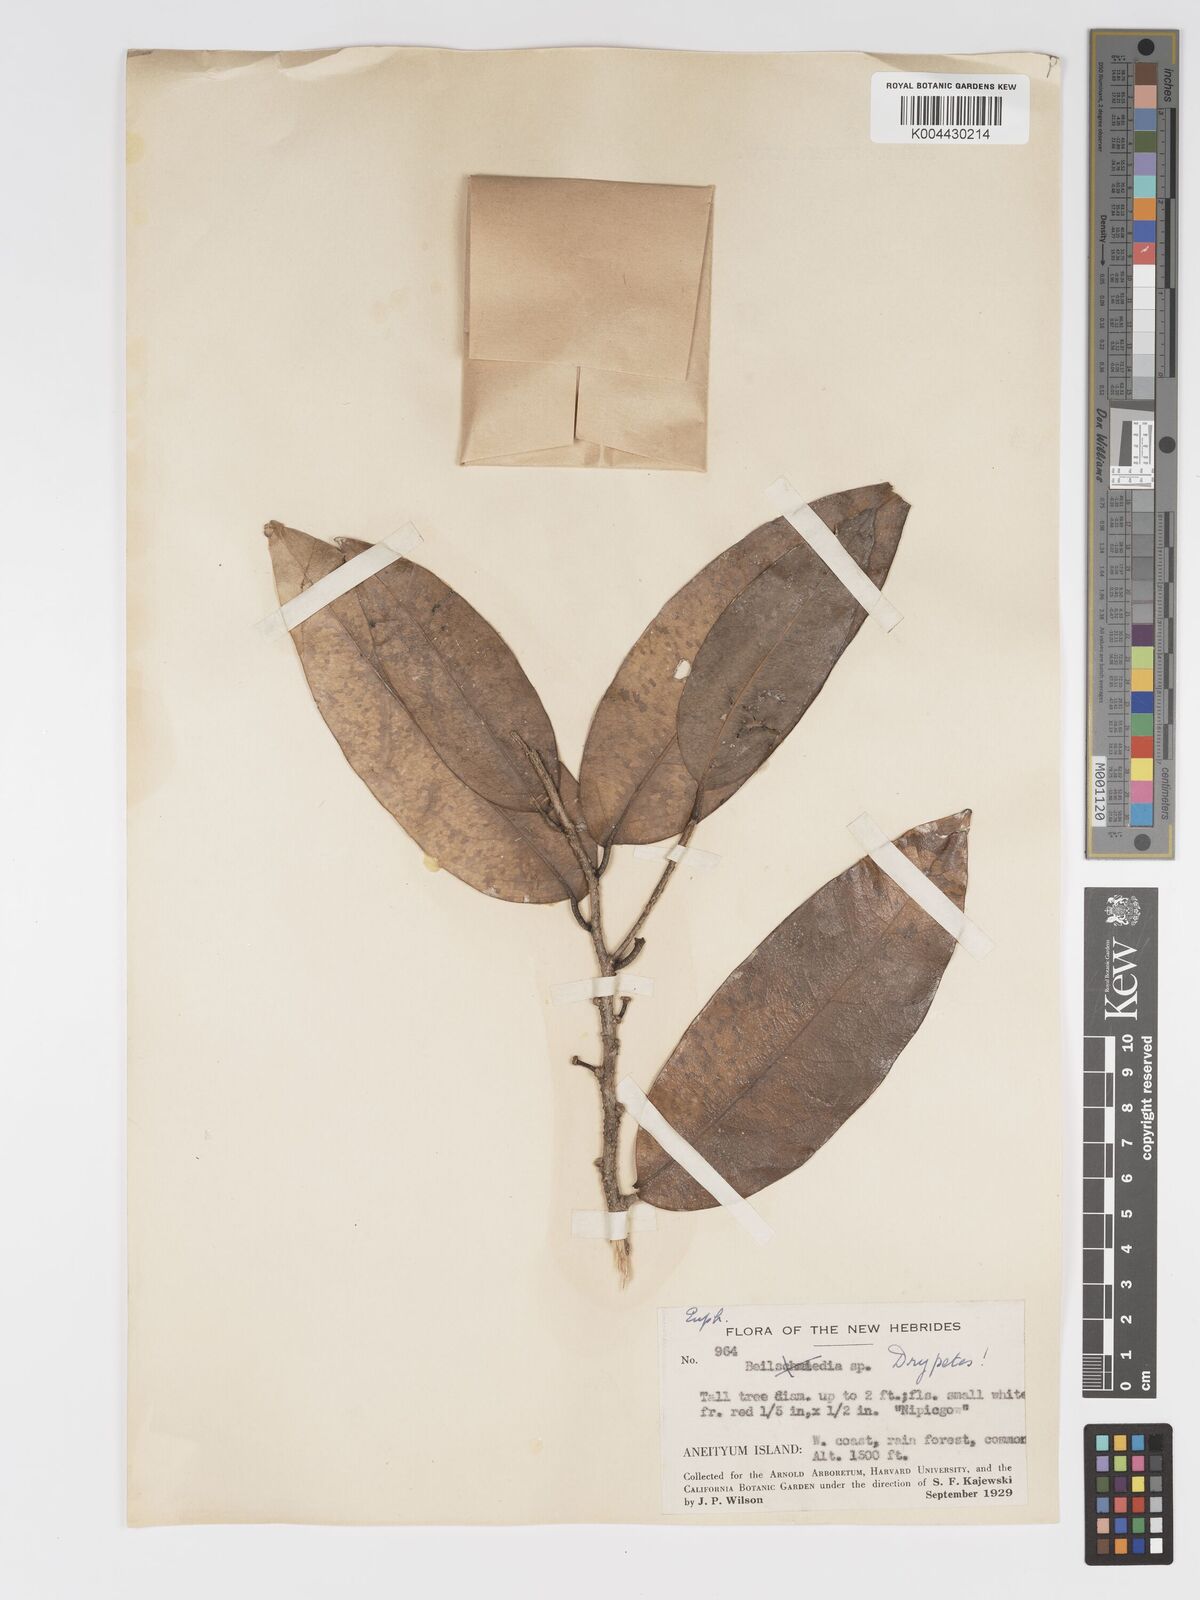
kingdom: Plantae
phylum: Tracheophyta
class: Magnoliopsida
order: Malpighiales
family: Putranjivaceae
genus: Drypetes
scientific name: Drypetes lasiogynoides
